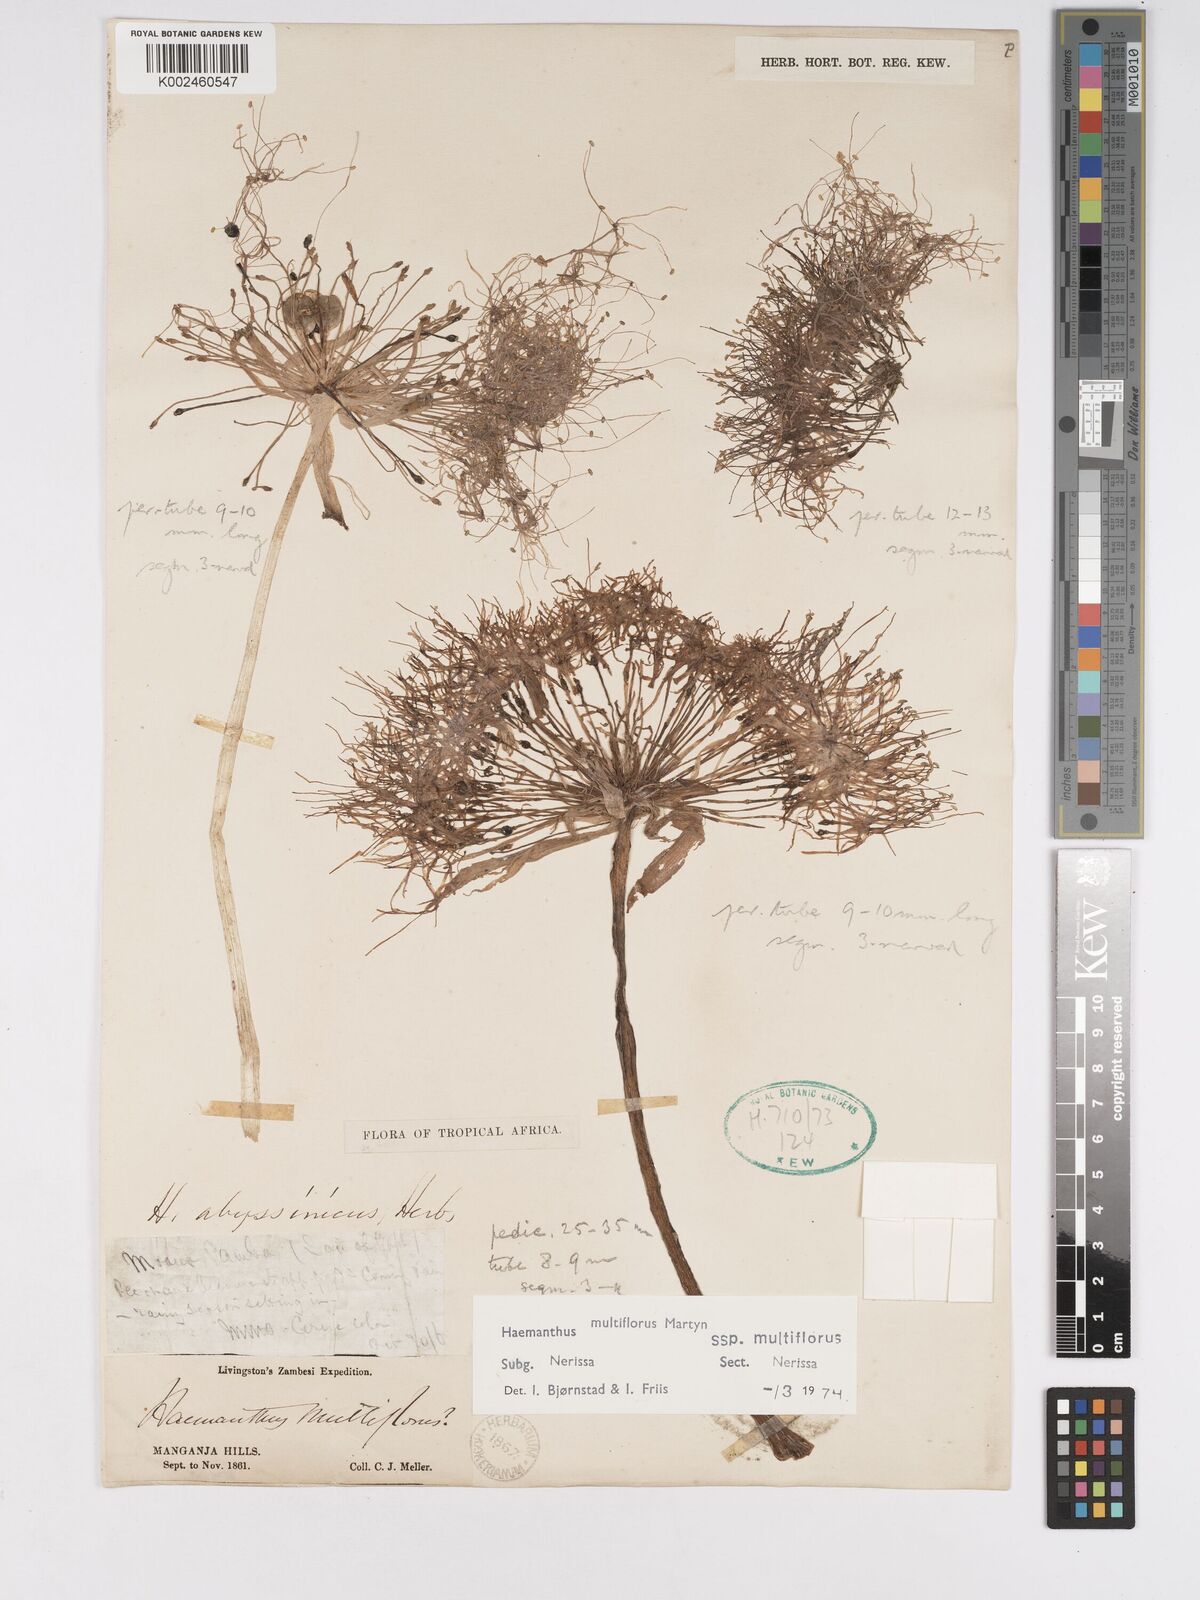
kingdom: Plantae
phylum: Tracheophyta
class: Liliopsida
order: Asparagales
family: Amaryllidaceae
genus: Scadoxus
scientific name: Scadoxus multiflorus
